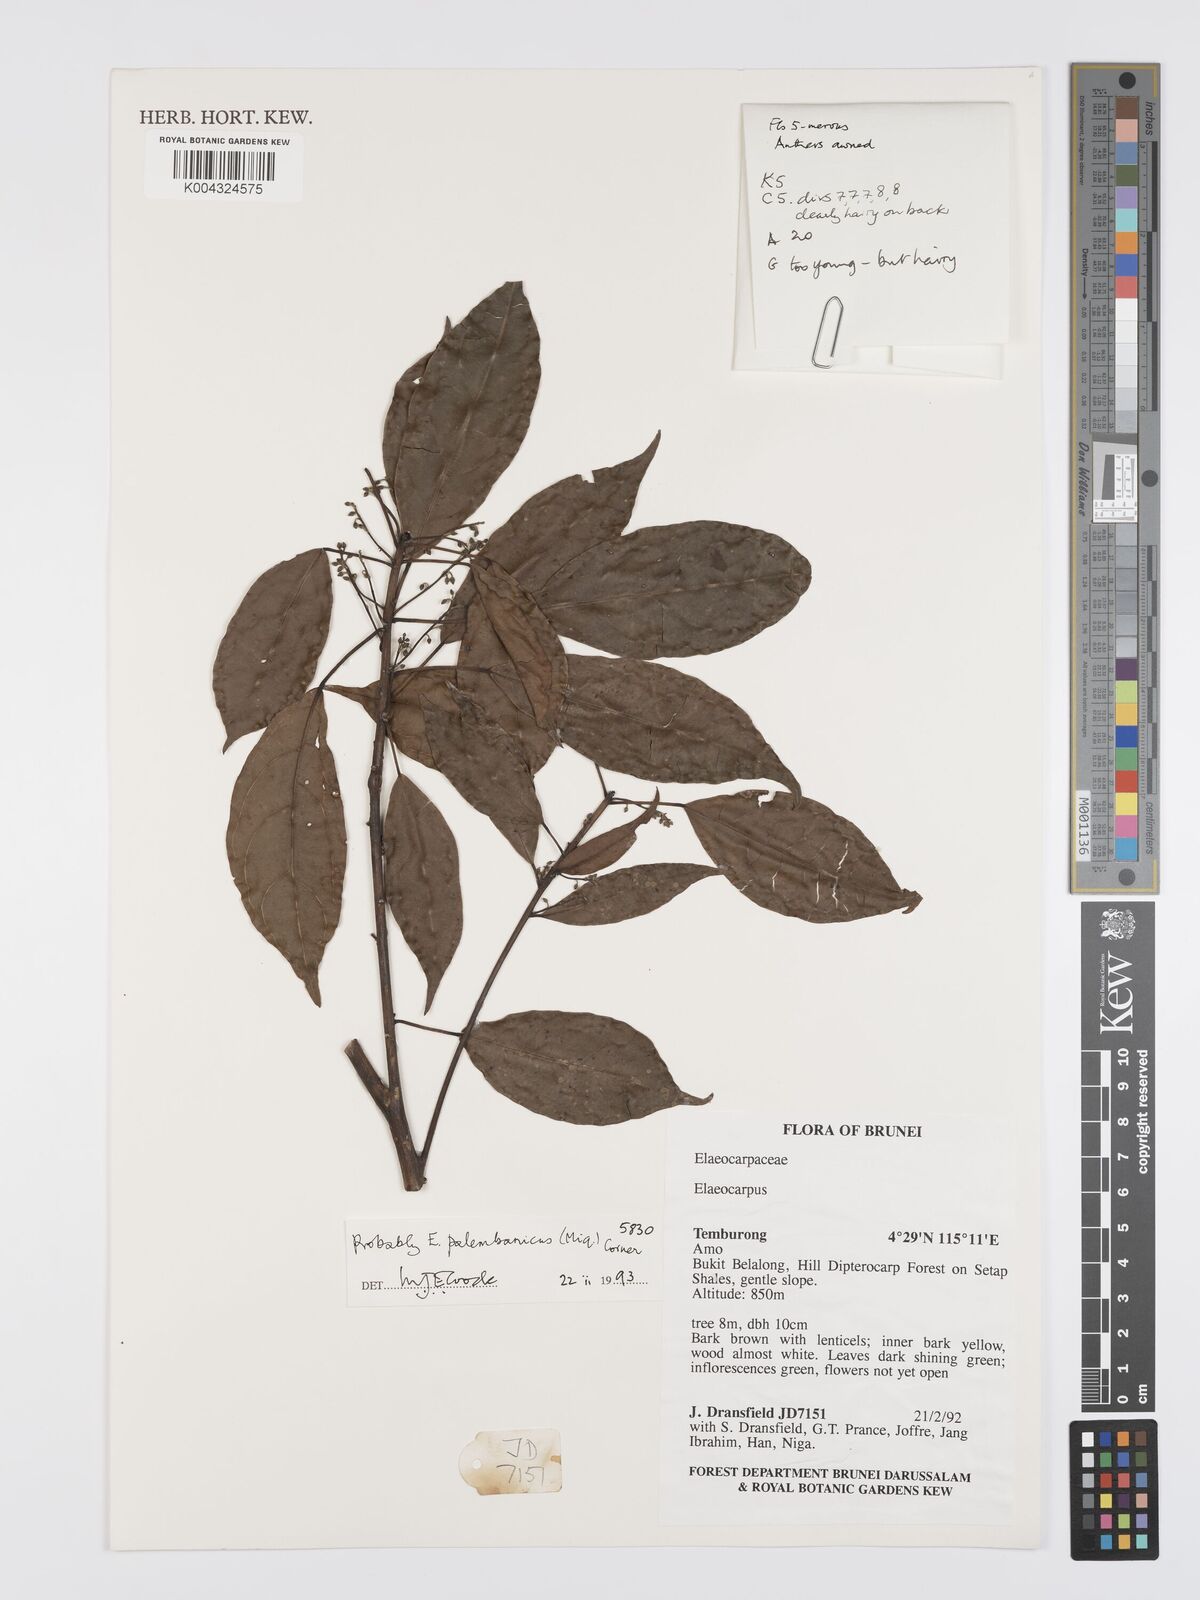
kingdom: Plantae
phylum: Tracheophyta
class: Magnoliopsida
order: Oxalidales
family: Elaeocarpaceae
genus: Elaeocarpus
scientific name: Elaeocarpus palembanicus
